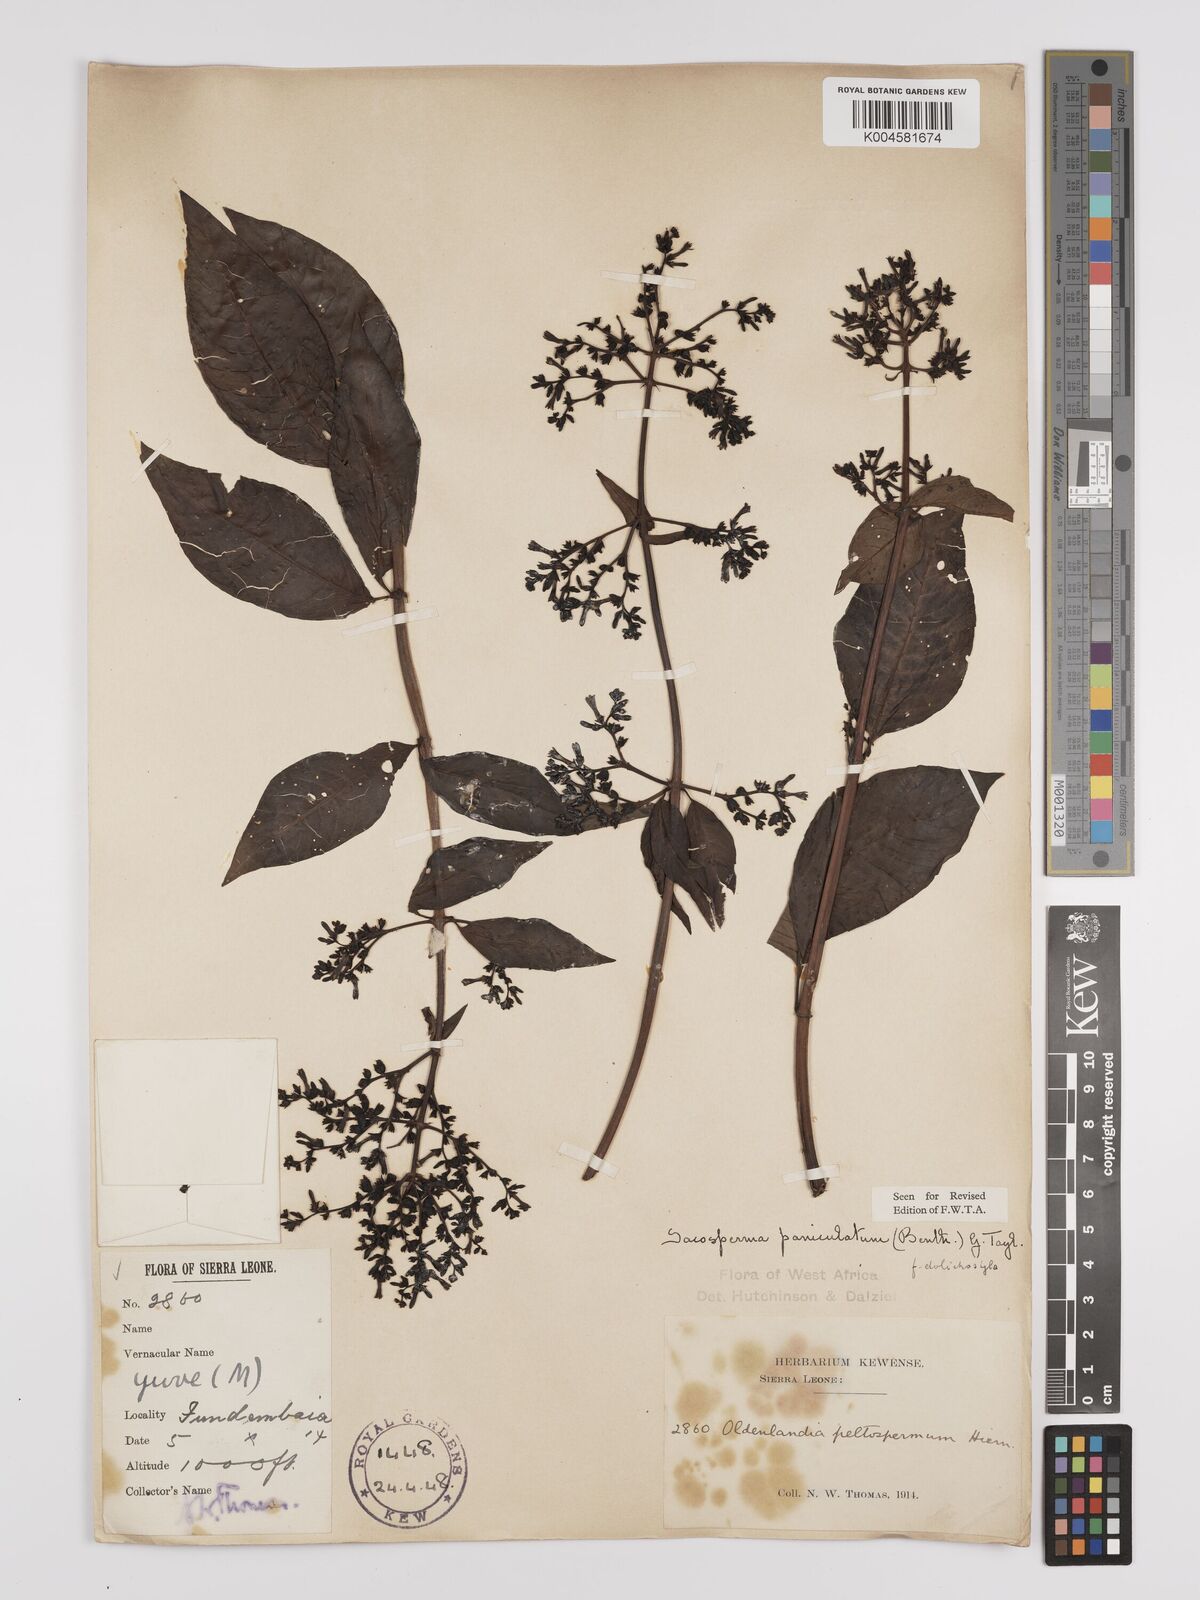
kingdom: Plantae
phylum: Tracheophyta
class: Magnoliopsida
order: Gentianales
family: Rubiaceae
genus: Sacosperma
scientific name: Sacosperma paniculatum
